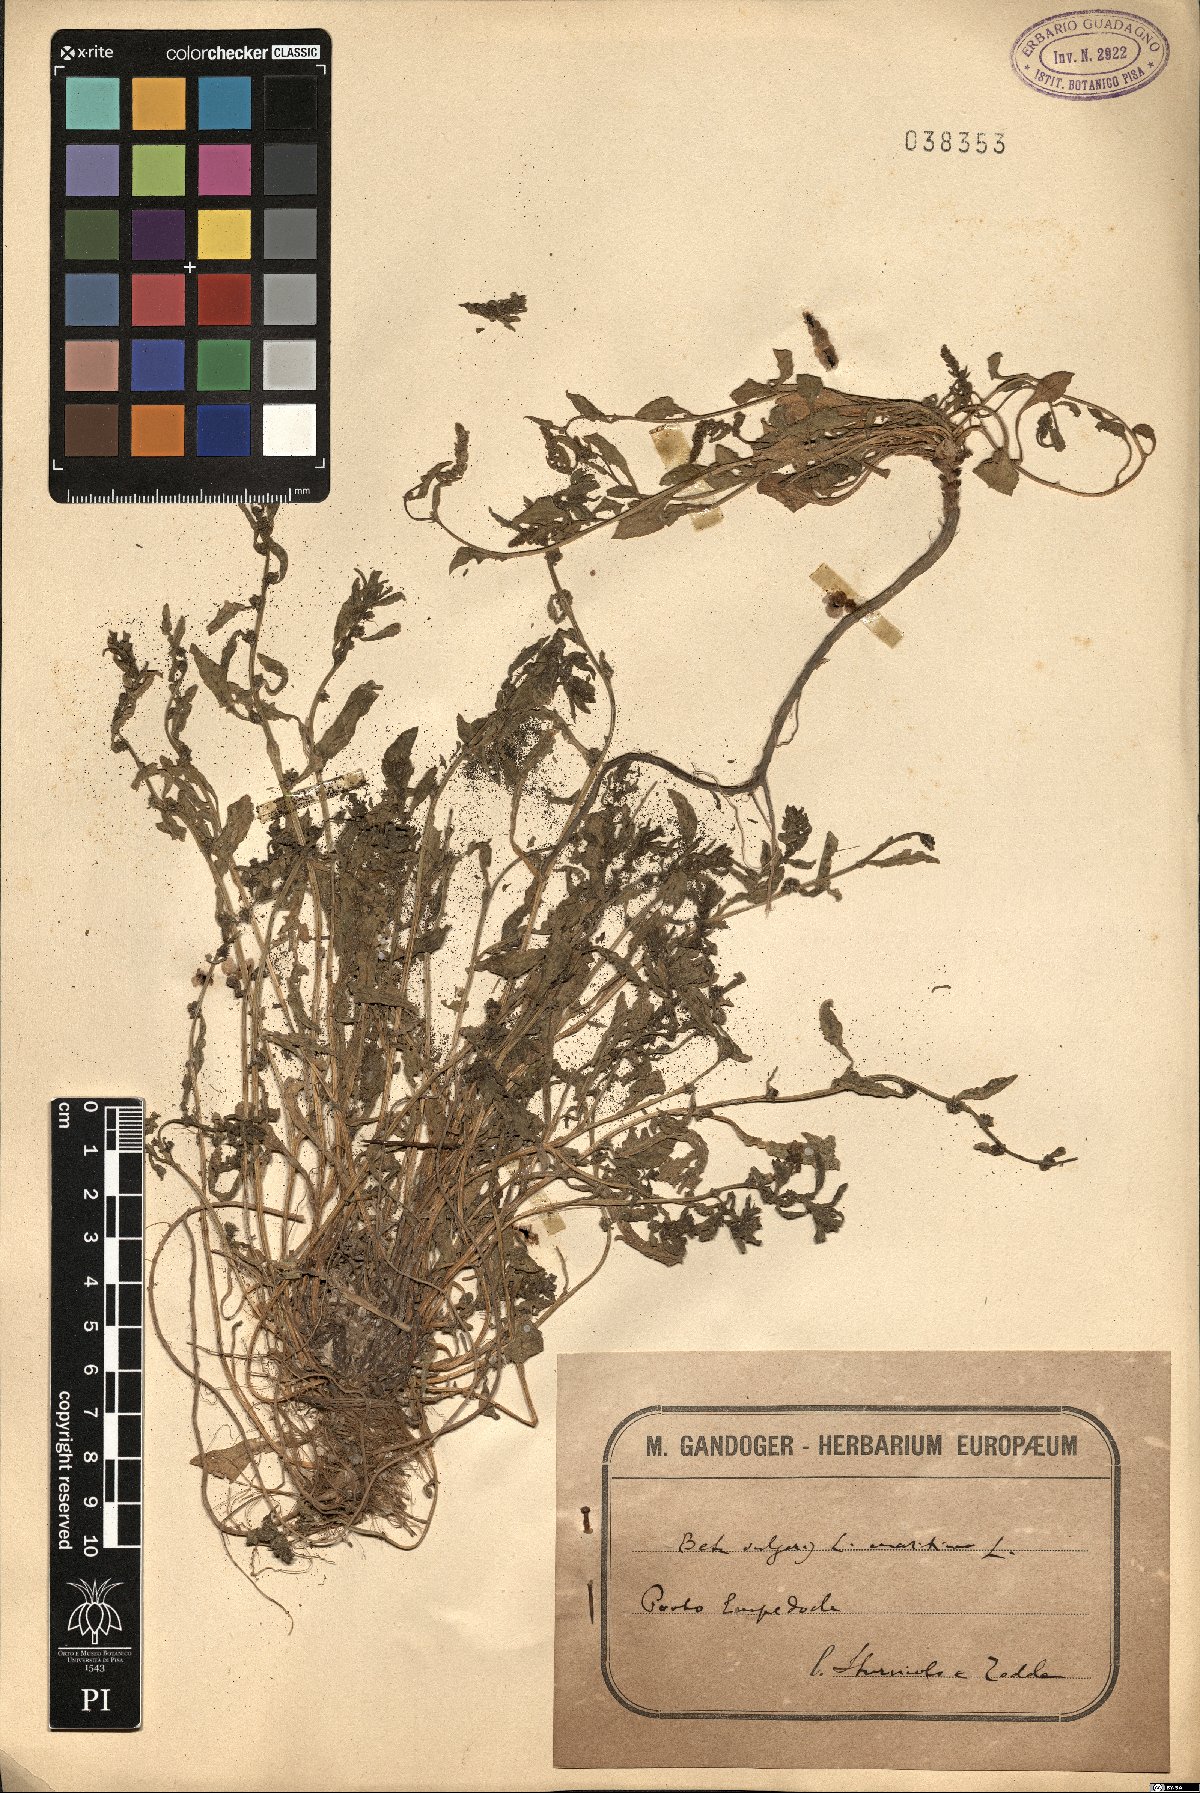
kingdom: Plantae
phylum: Tracheophyta
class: Magnoliopsida
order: Caryophyllales
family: Amaranthaceae
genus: Beta
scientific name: Beta vulgaris
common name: Beet
